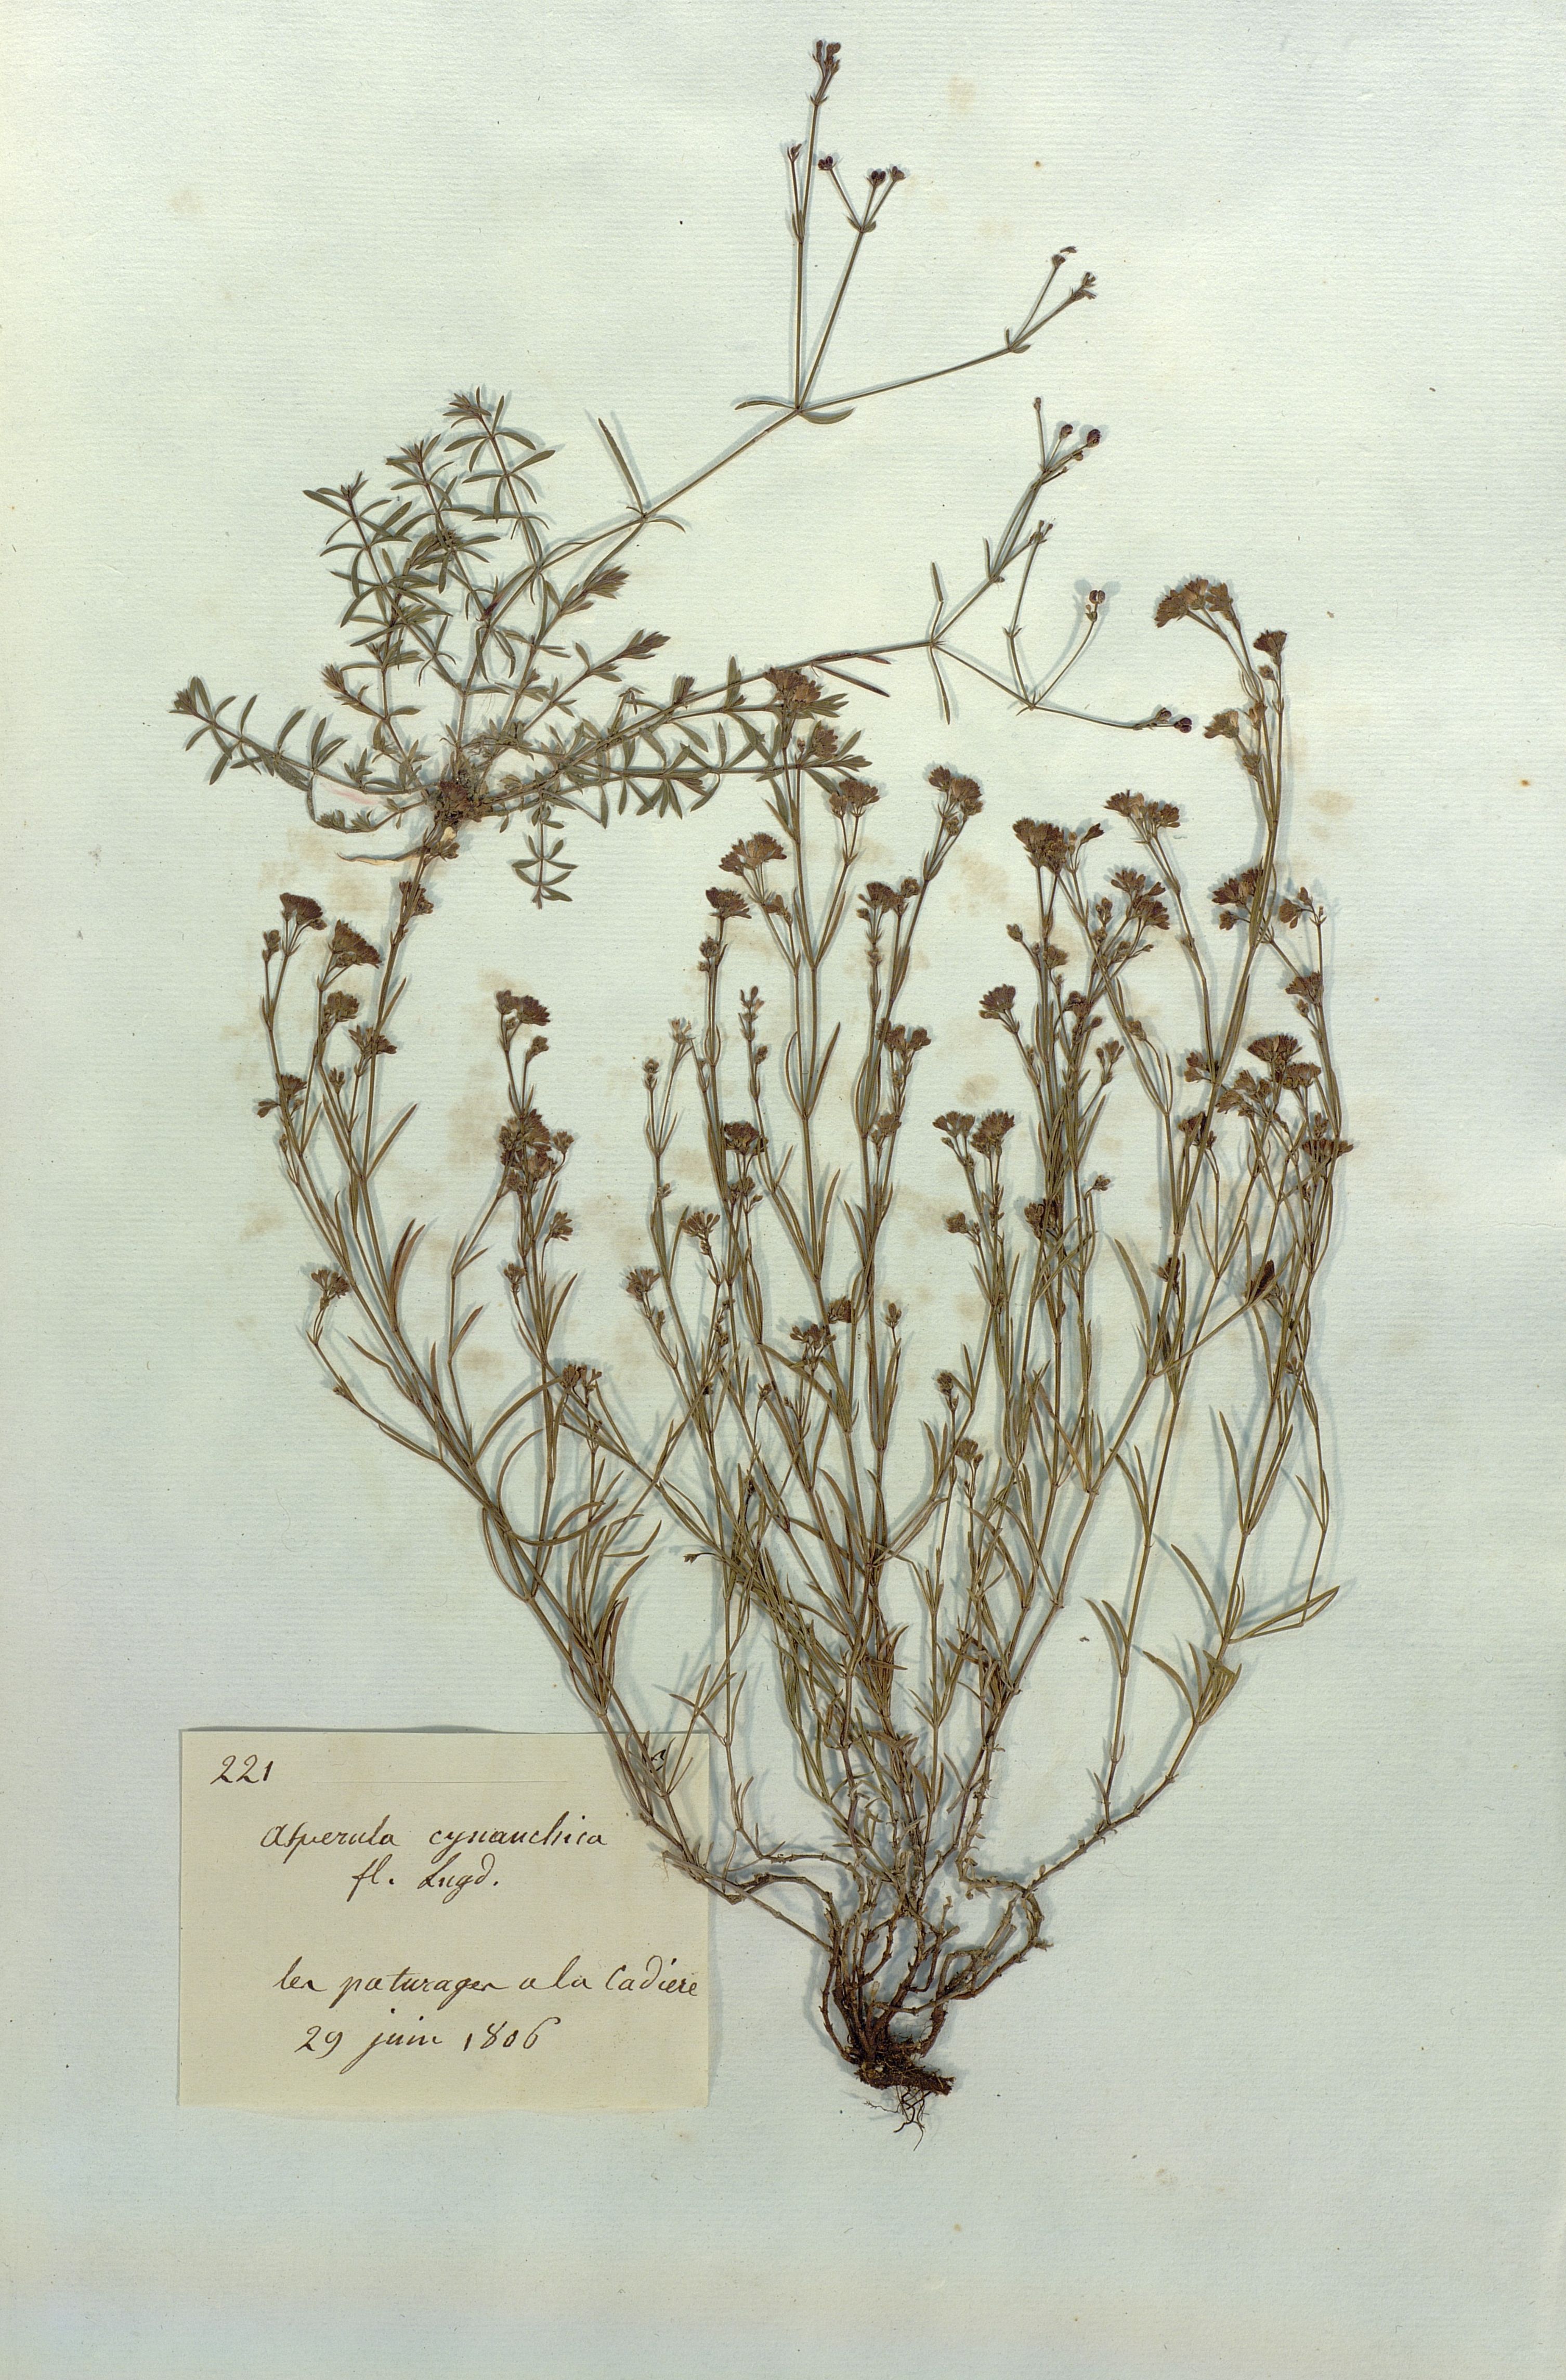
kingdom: Plantae
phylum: Tracheophyta
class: Magnoliopsida
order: Gentianales
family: Rubiaceae
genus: Cynanchica
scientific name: Cynanchica pyrenaica
